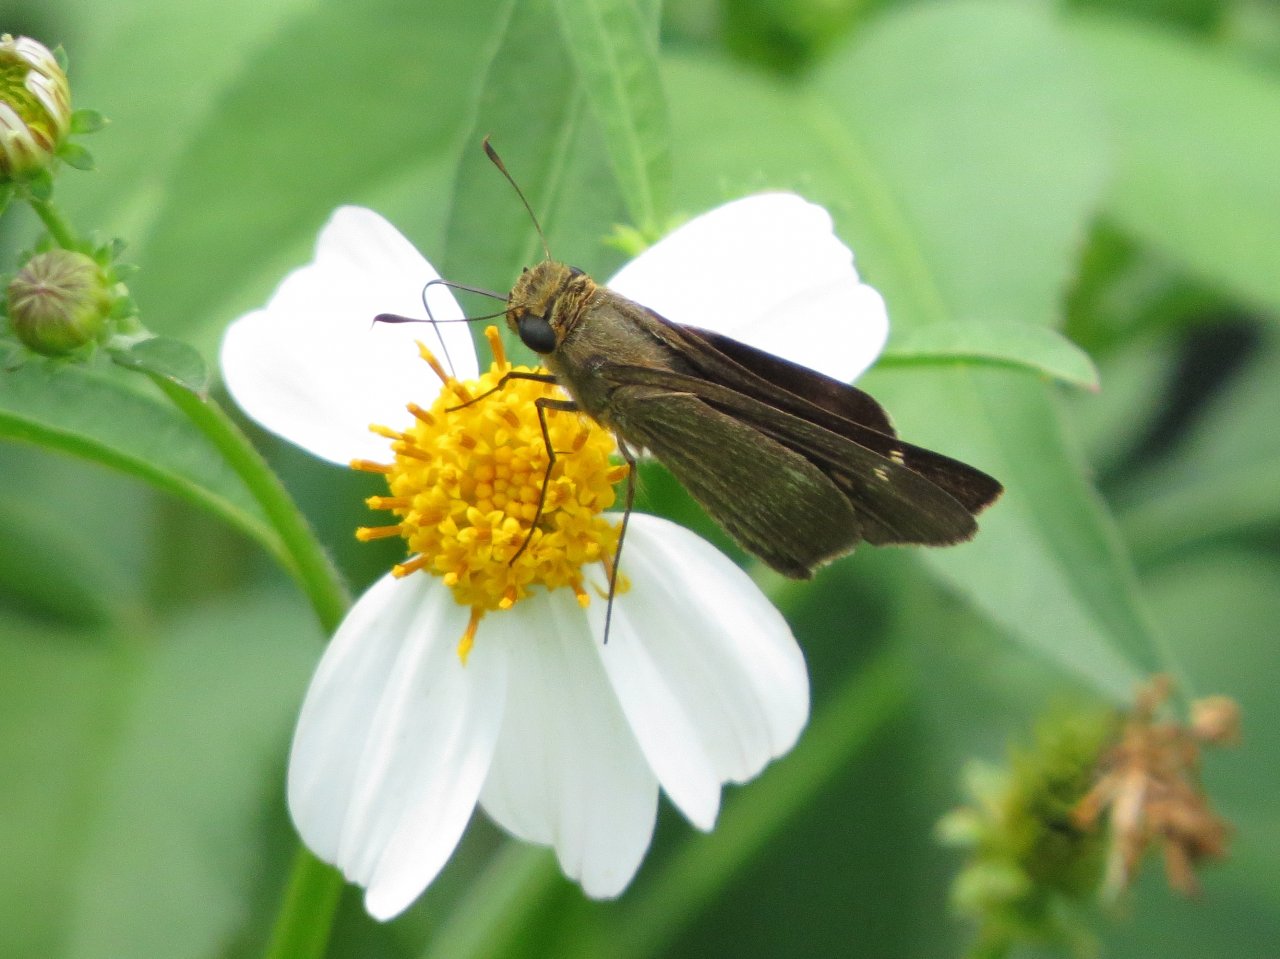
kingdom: Animalia
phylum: Arthropoda
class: Insecta
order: Lepidoptera
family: Hesperiidae
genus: Panoquina
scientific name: Panoquina ocola
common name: Ocola Skipper
